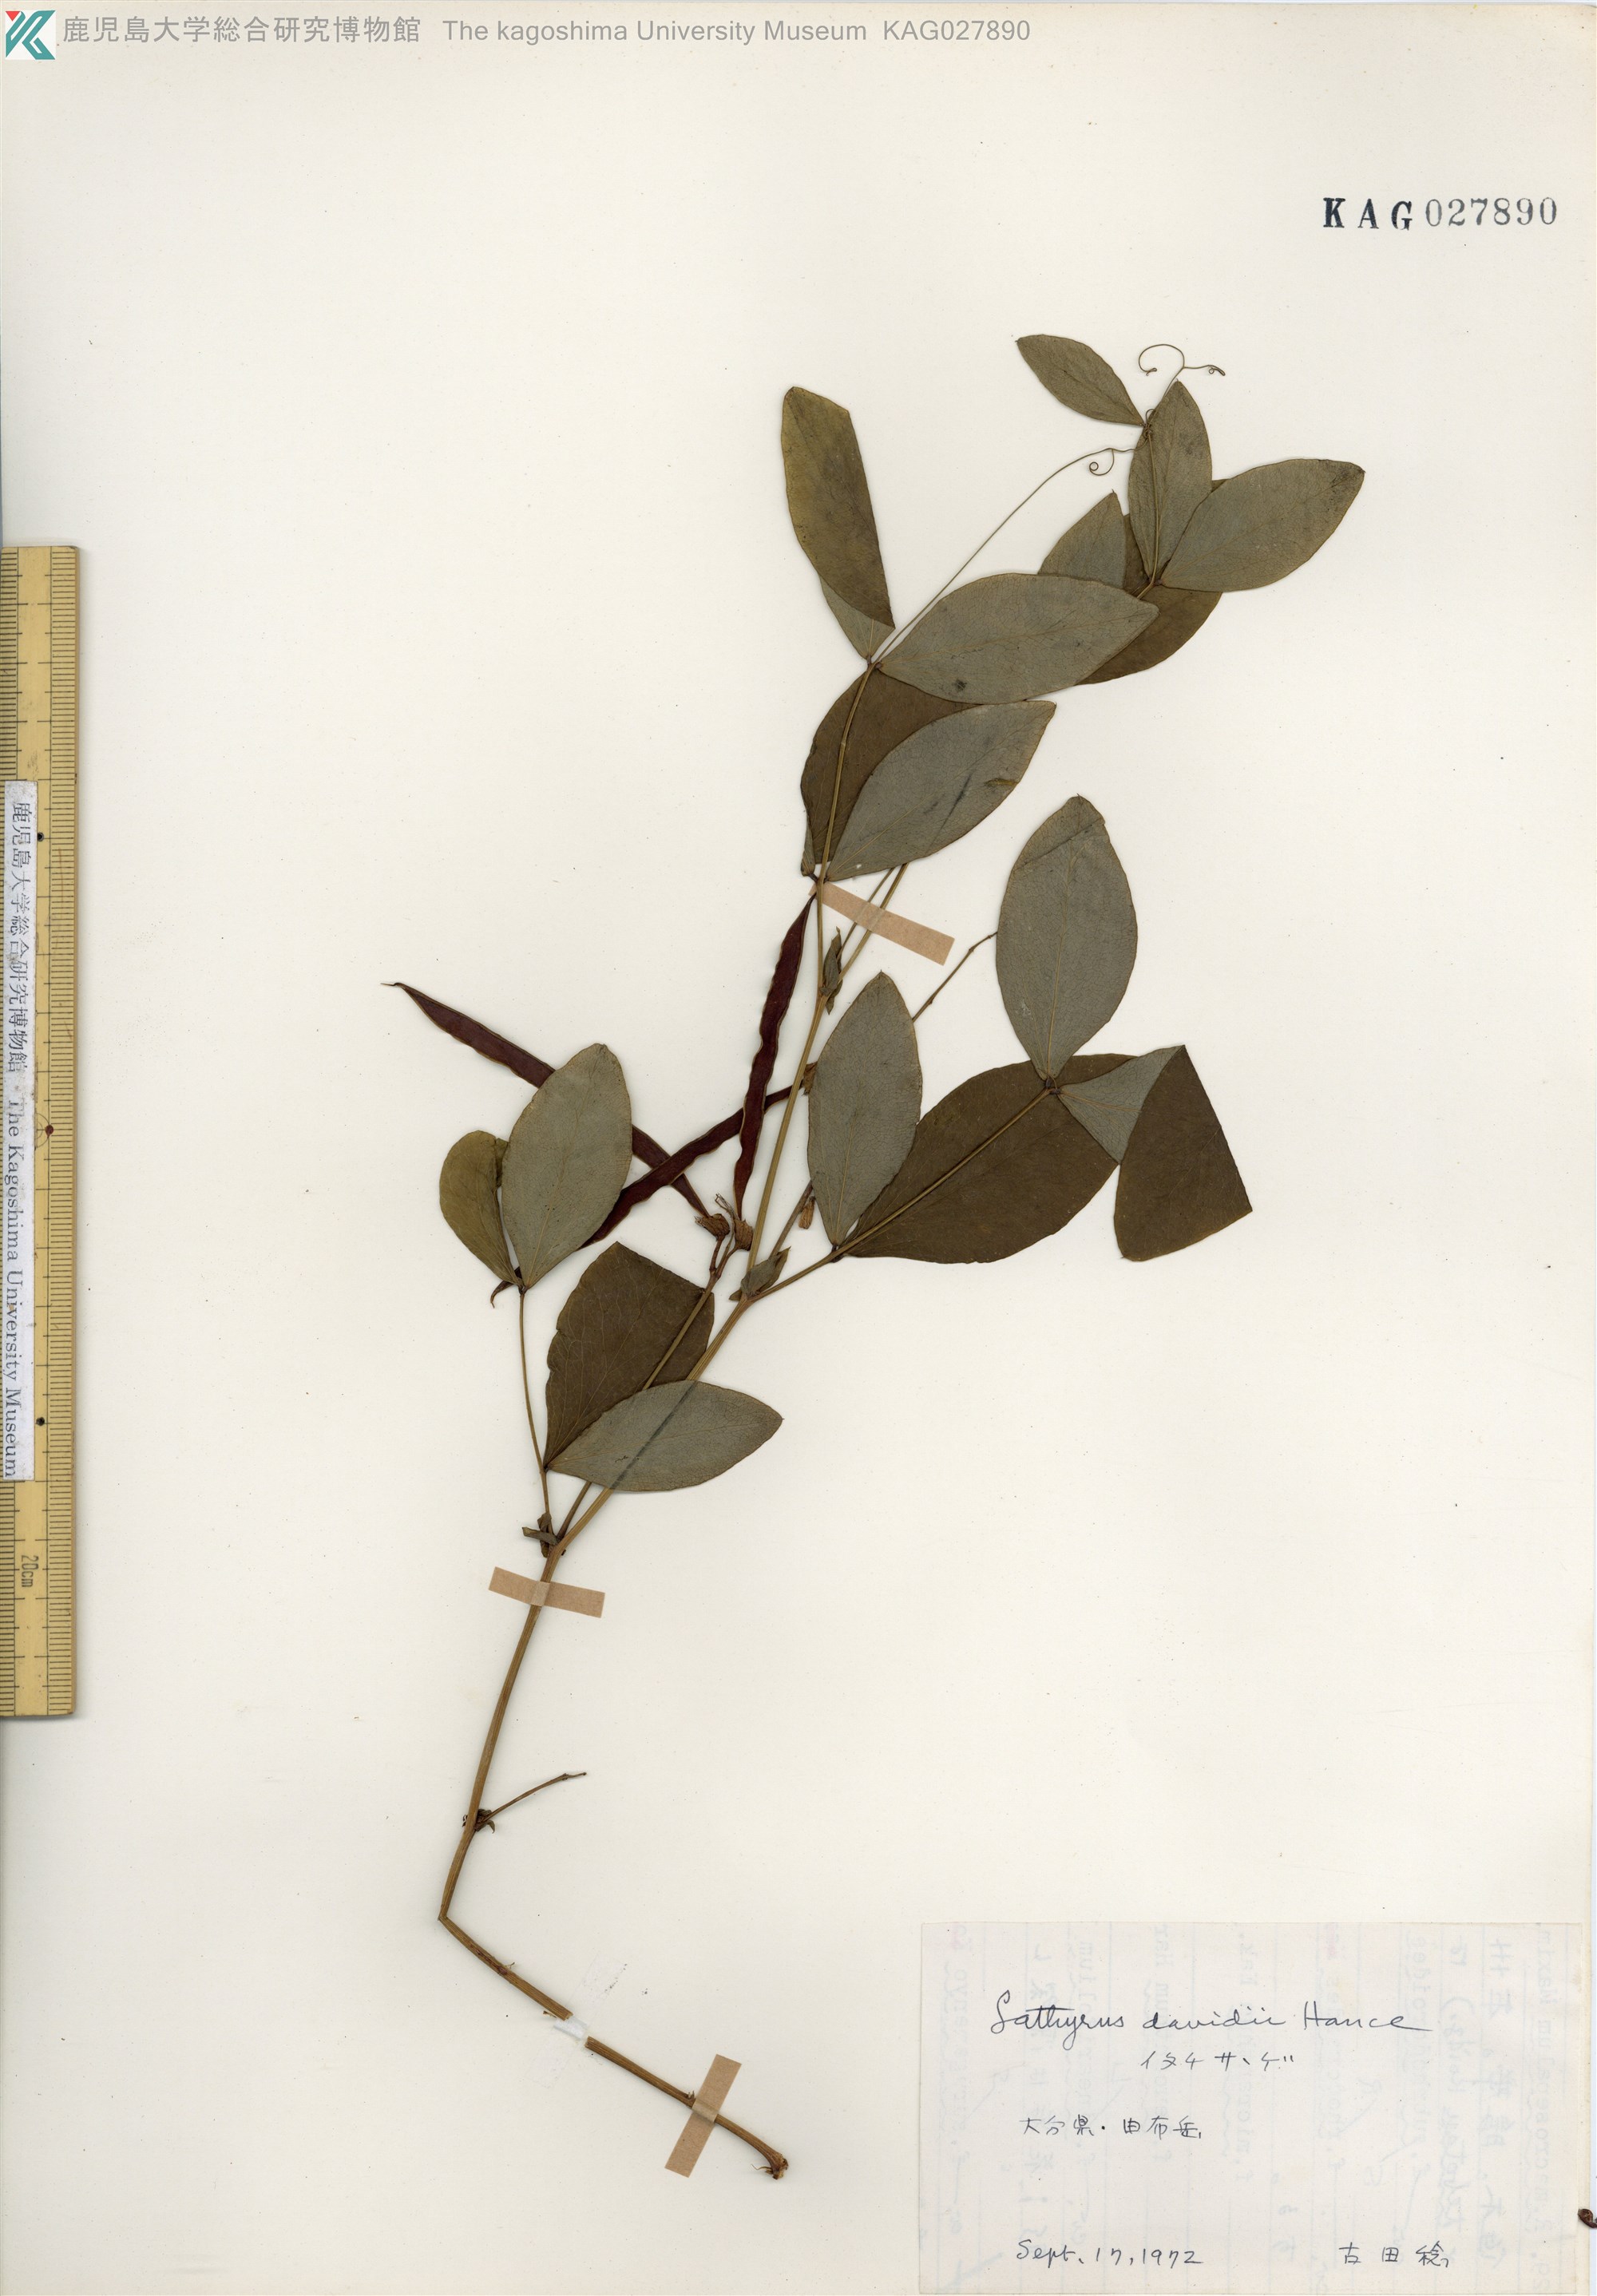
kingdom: Plantae
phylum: Tracheophyta
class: Magnoliopsida
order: Fabales
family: Fabaceae
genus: Lathyrus
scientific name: Lathyrus davidii
